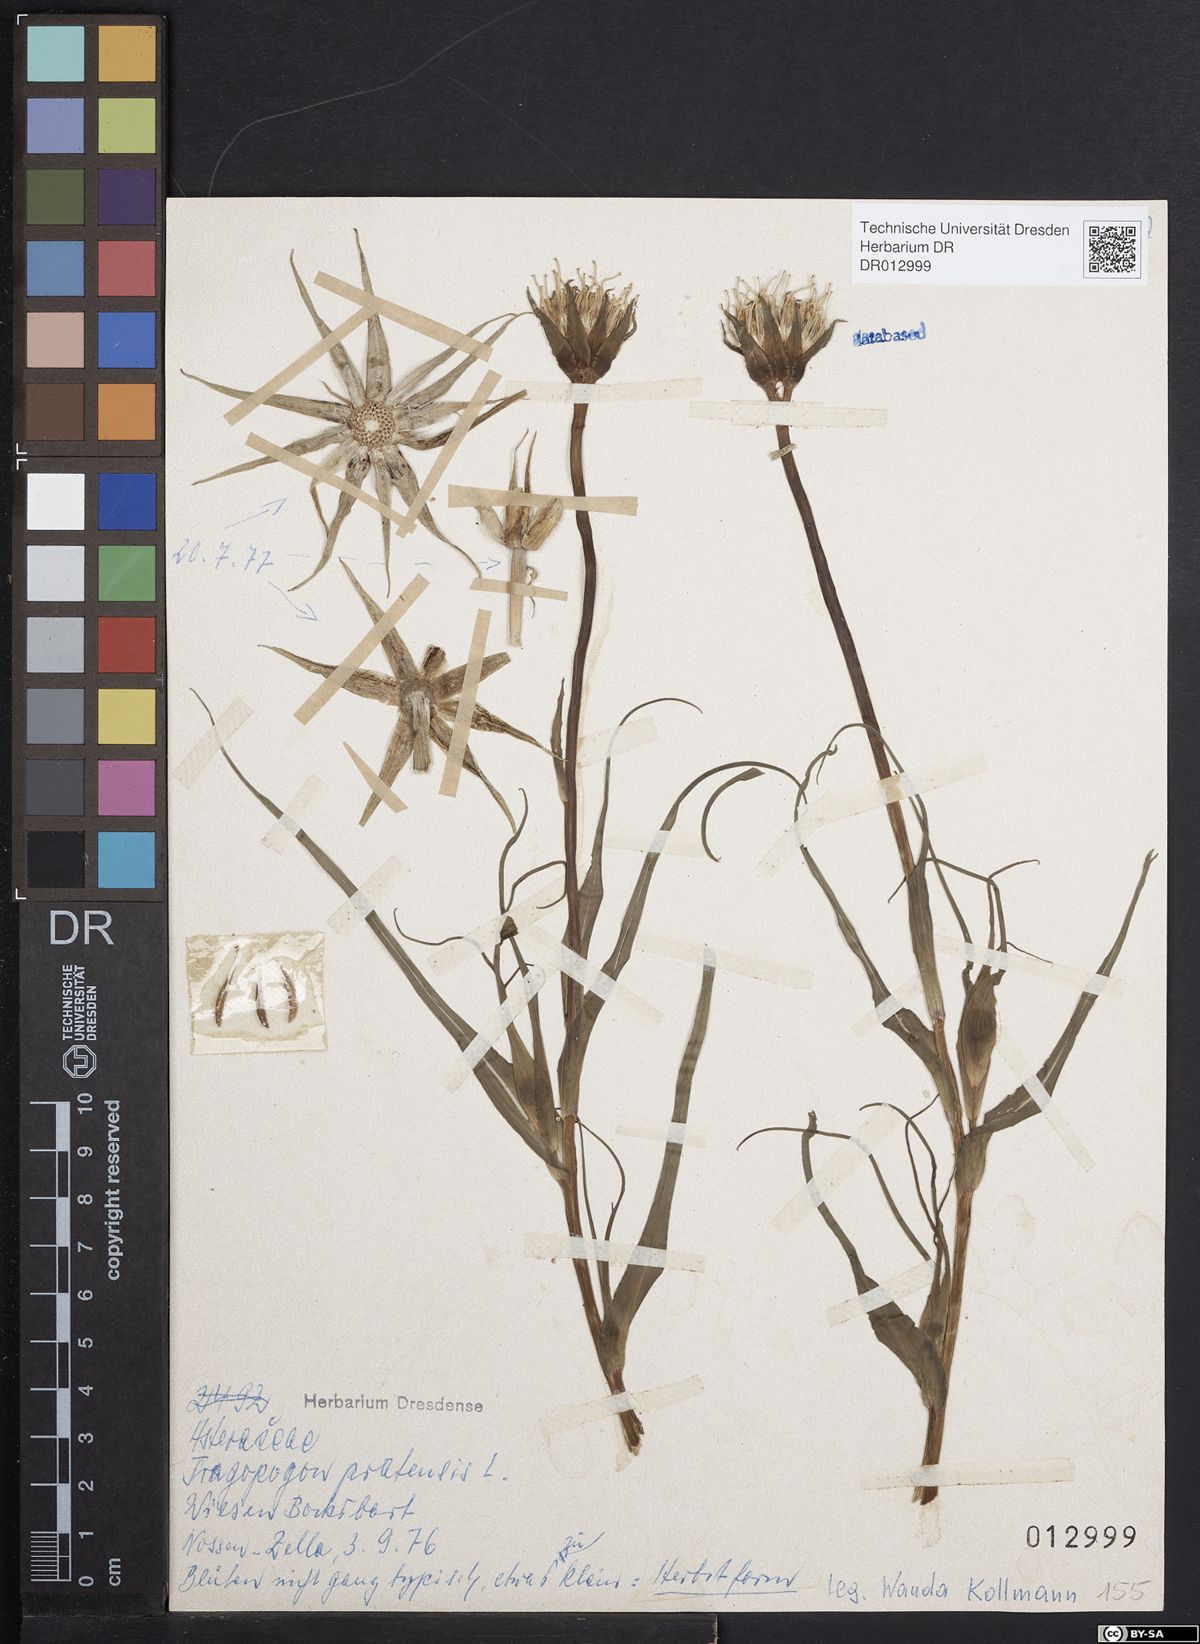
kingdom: Plantae
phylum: Tracheophyta
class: Magnoliopsida
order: Asterales
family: Asteraceae
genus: Tragopogon
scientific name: Tragopogon pratensis
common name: Goat's-beard
